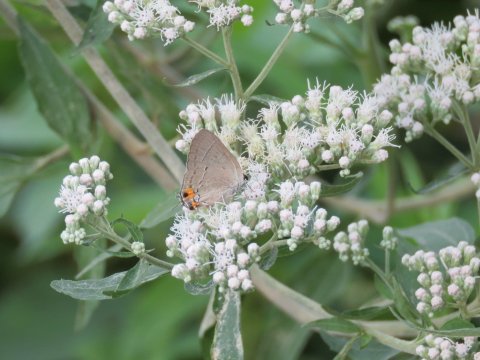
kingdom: Animalia
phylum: Arthropoda
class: Insecta
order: Lepidoptera
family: Lycaenidae
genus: Strymon
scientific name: Strymon melinus
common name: Gray Hairstreak
